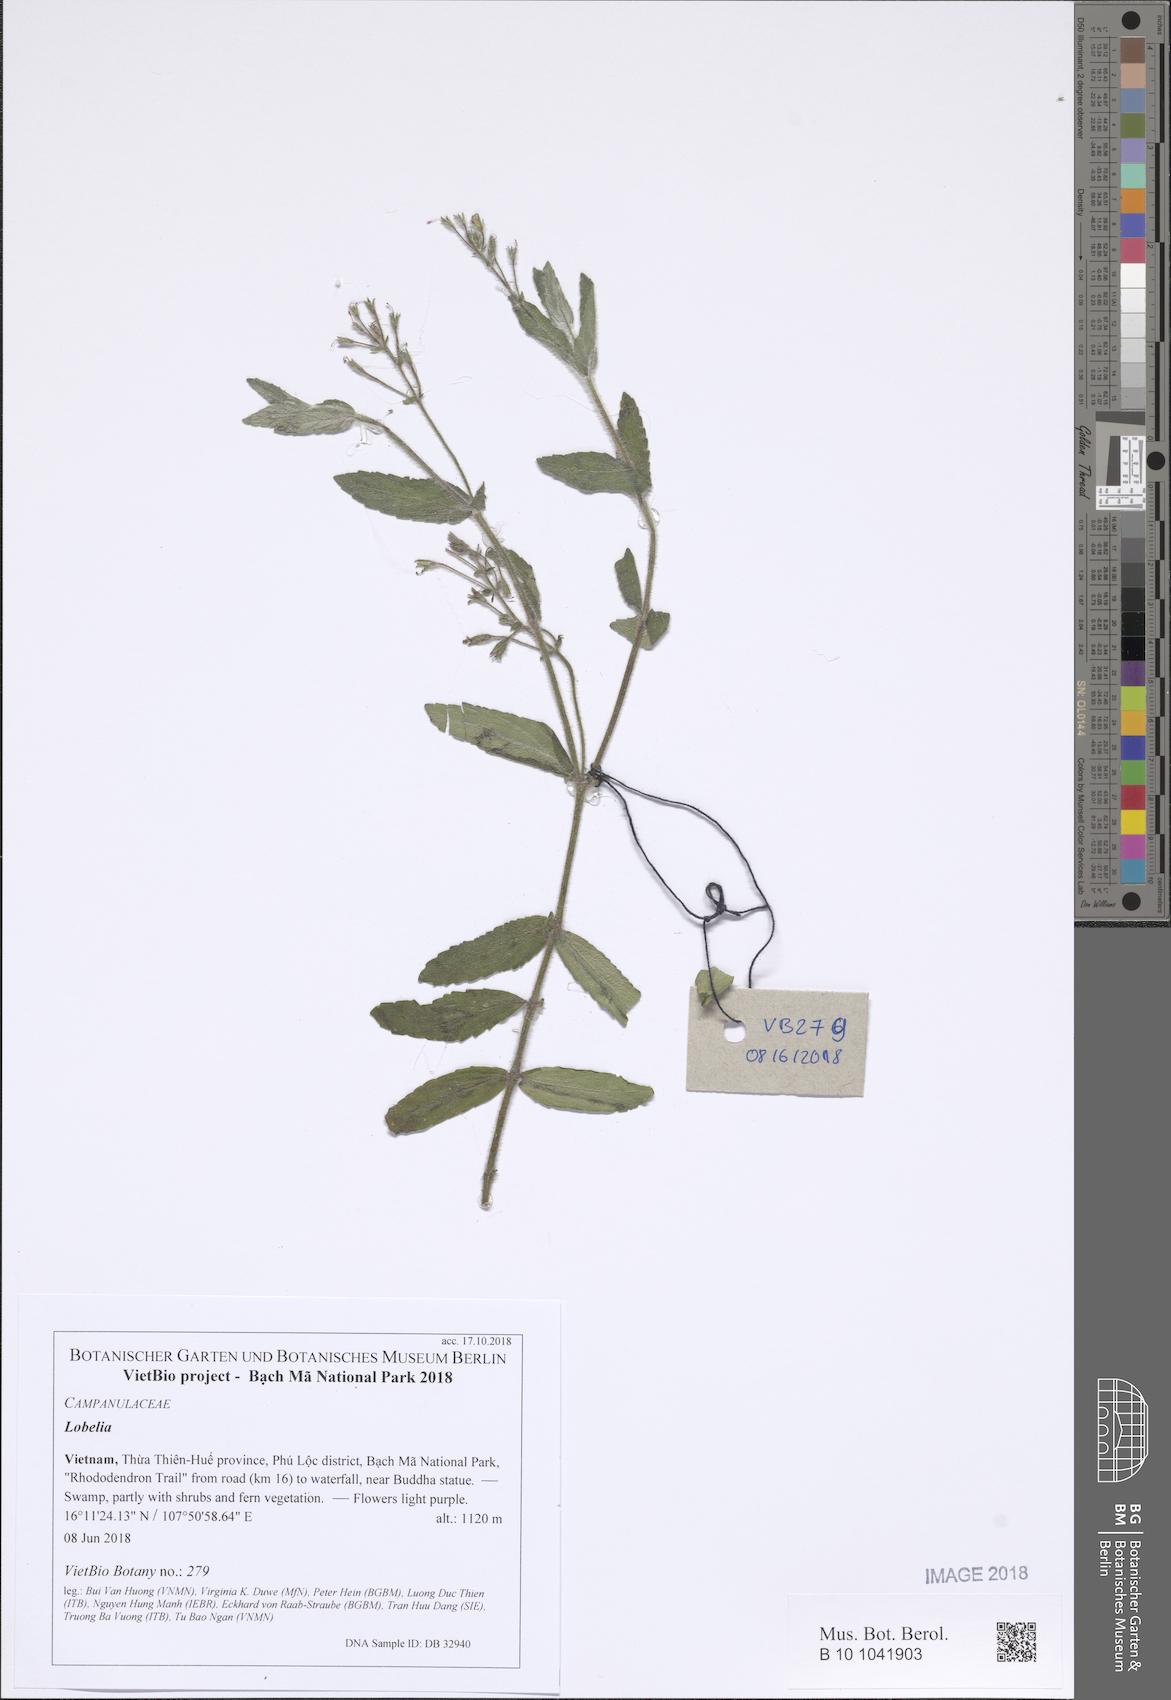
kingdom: Plantae
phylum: Tracheophyta
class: Magnoliopsida
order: Asterales
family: Campanulaceae
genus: Lobelia
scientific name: Lobelia
